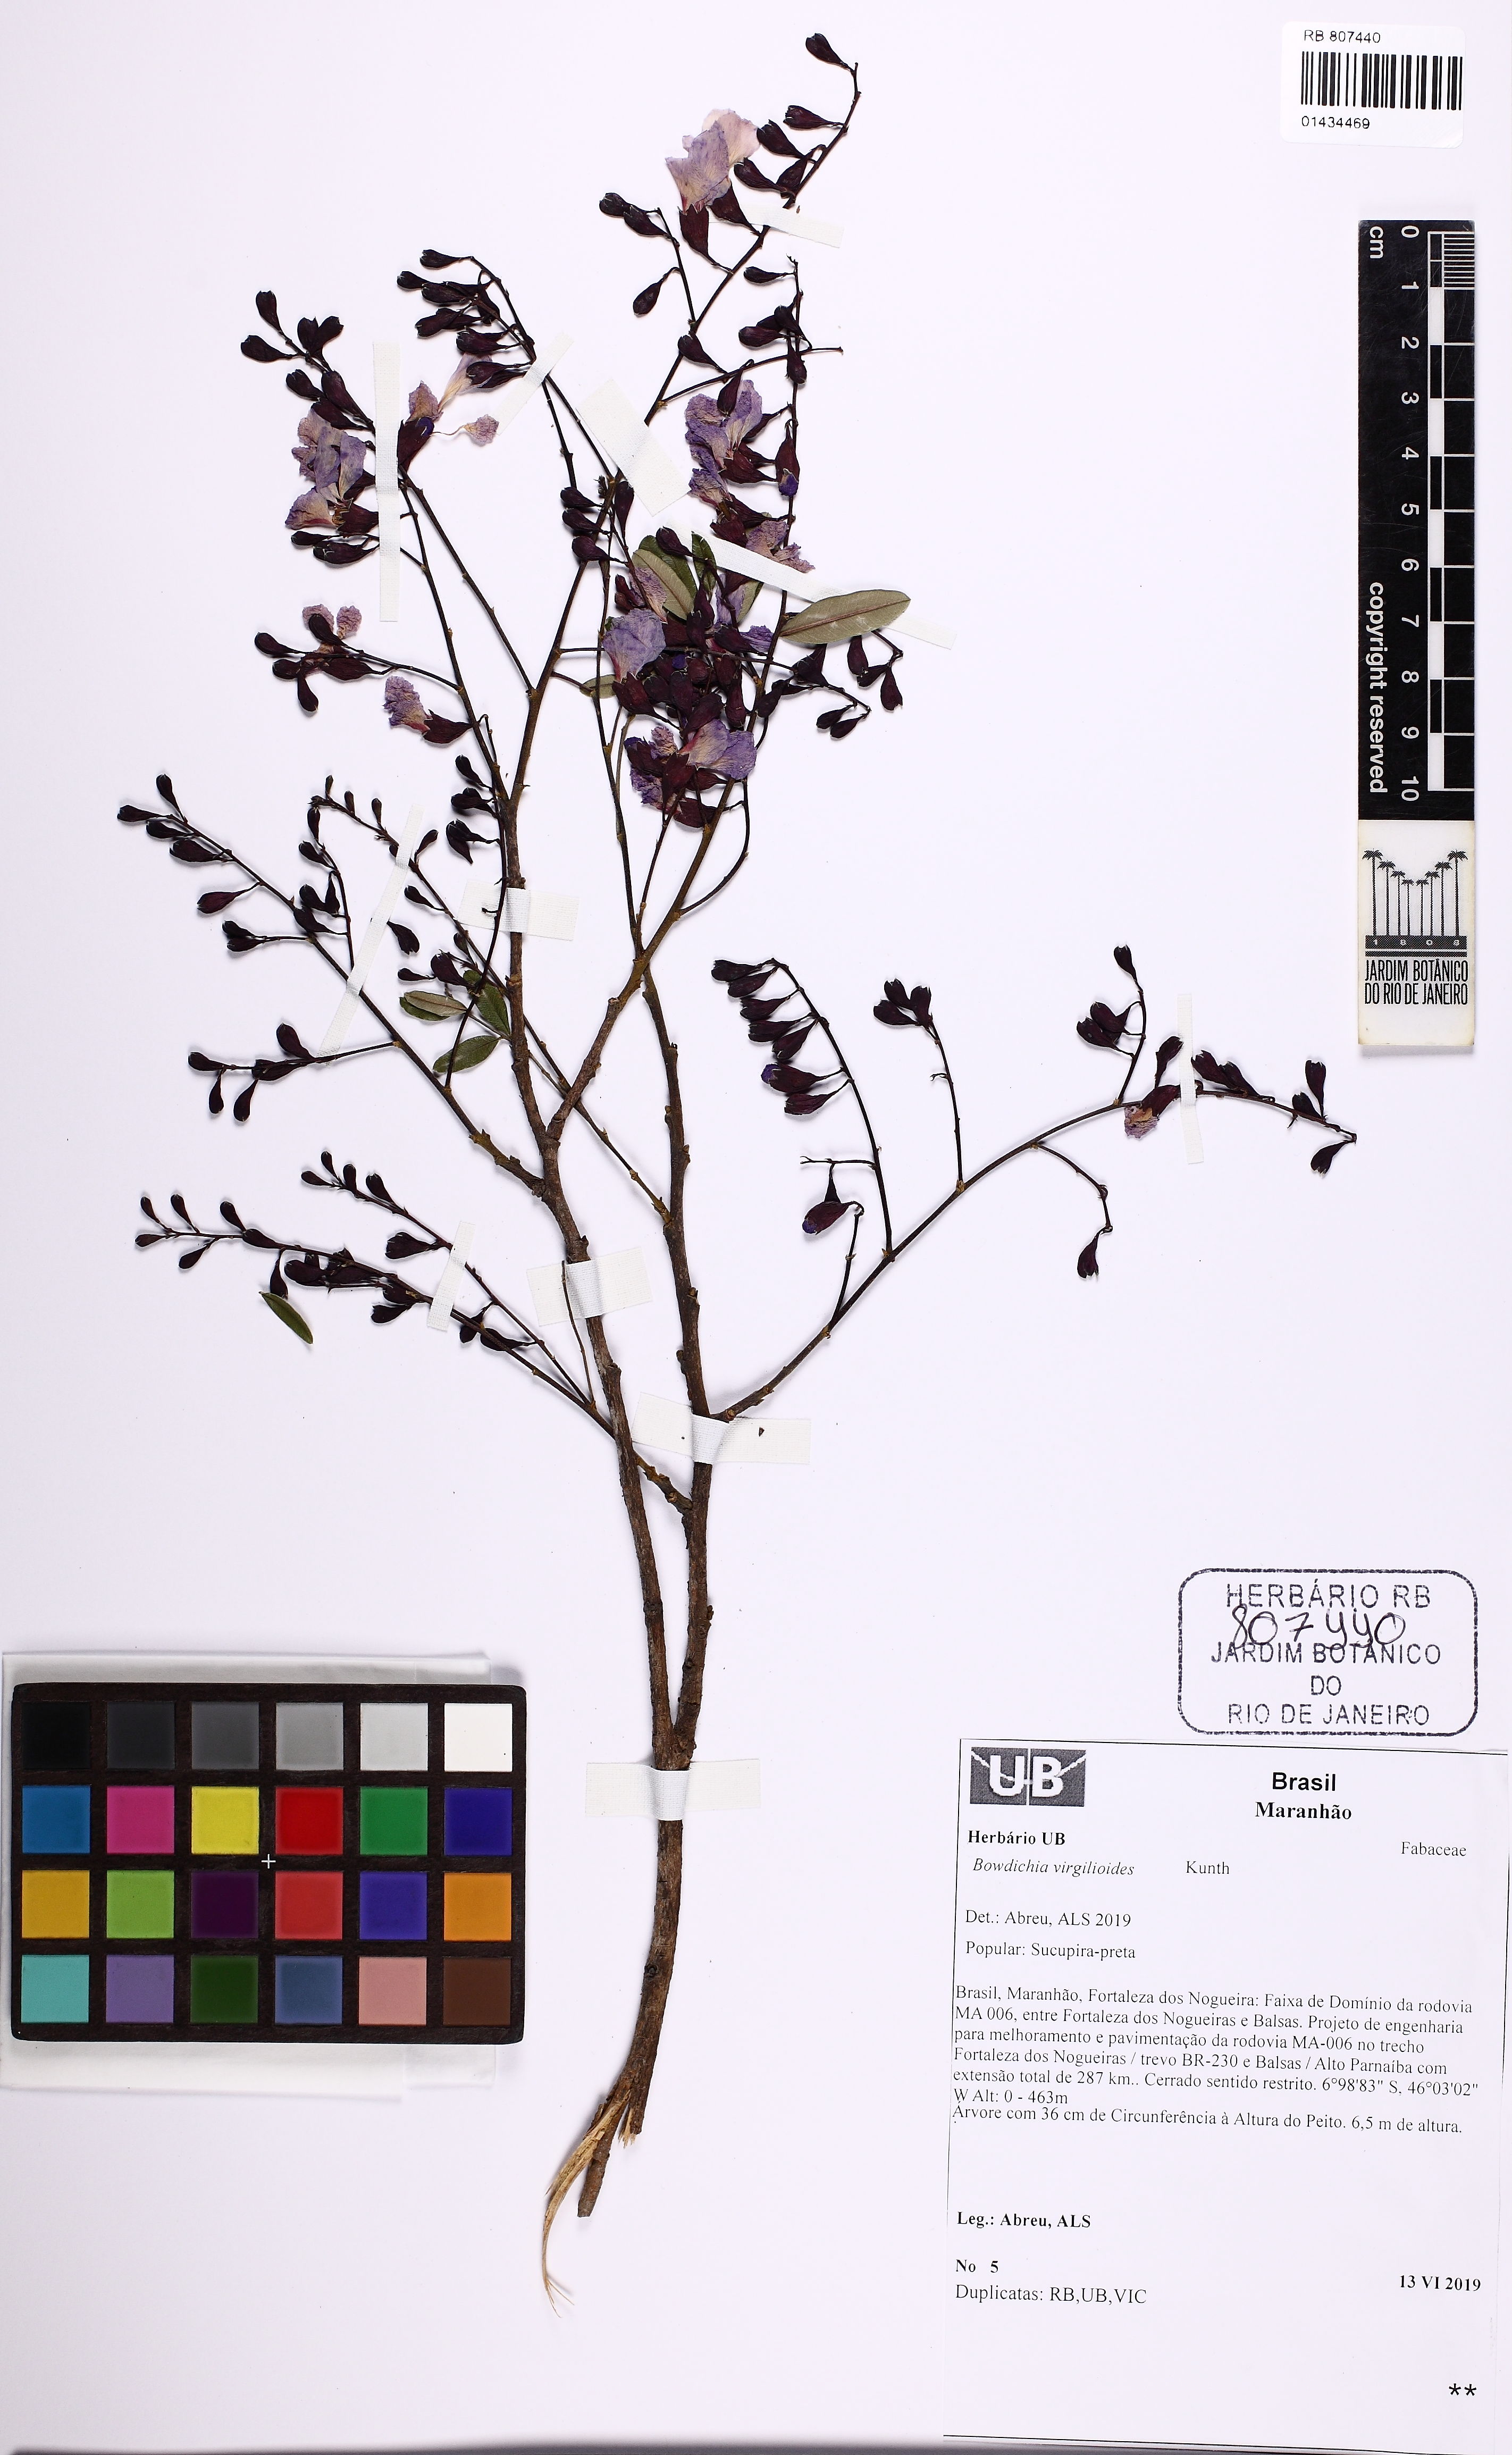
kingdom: Plantae
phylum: Tracheophyta
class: Magnoliopsida
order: Fabales
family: Fabaceae
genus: Bowdichia
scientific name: Bowdichia virgilioides
